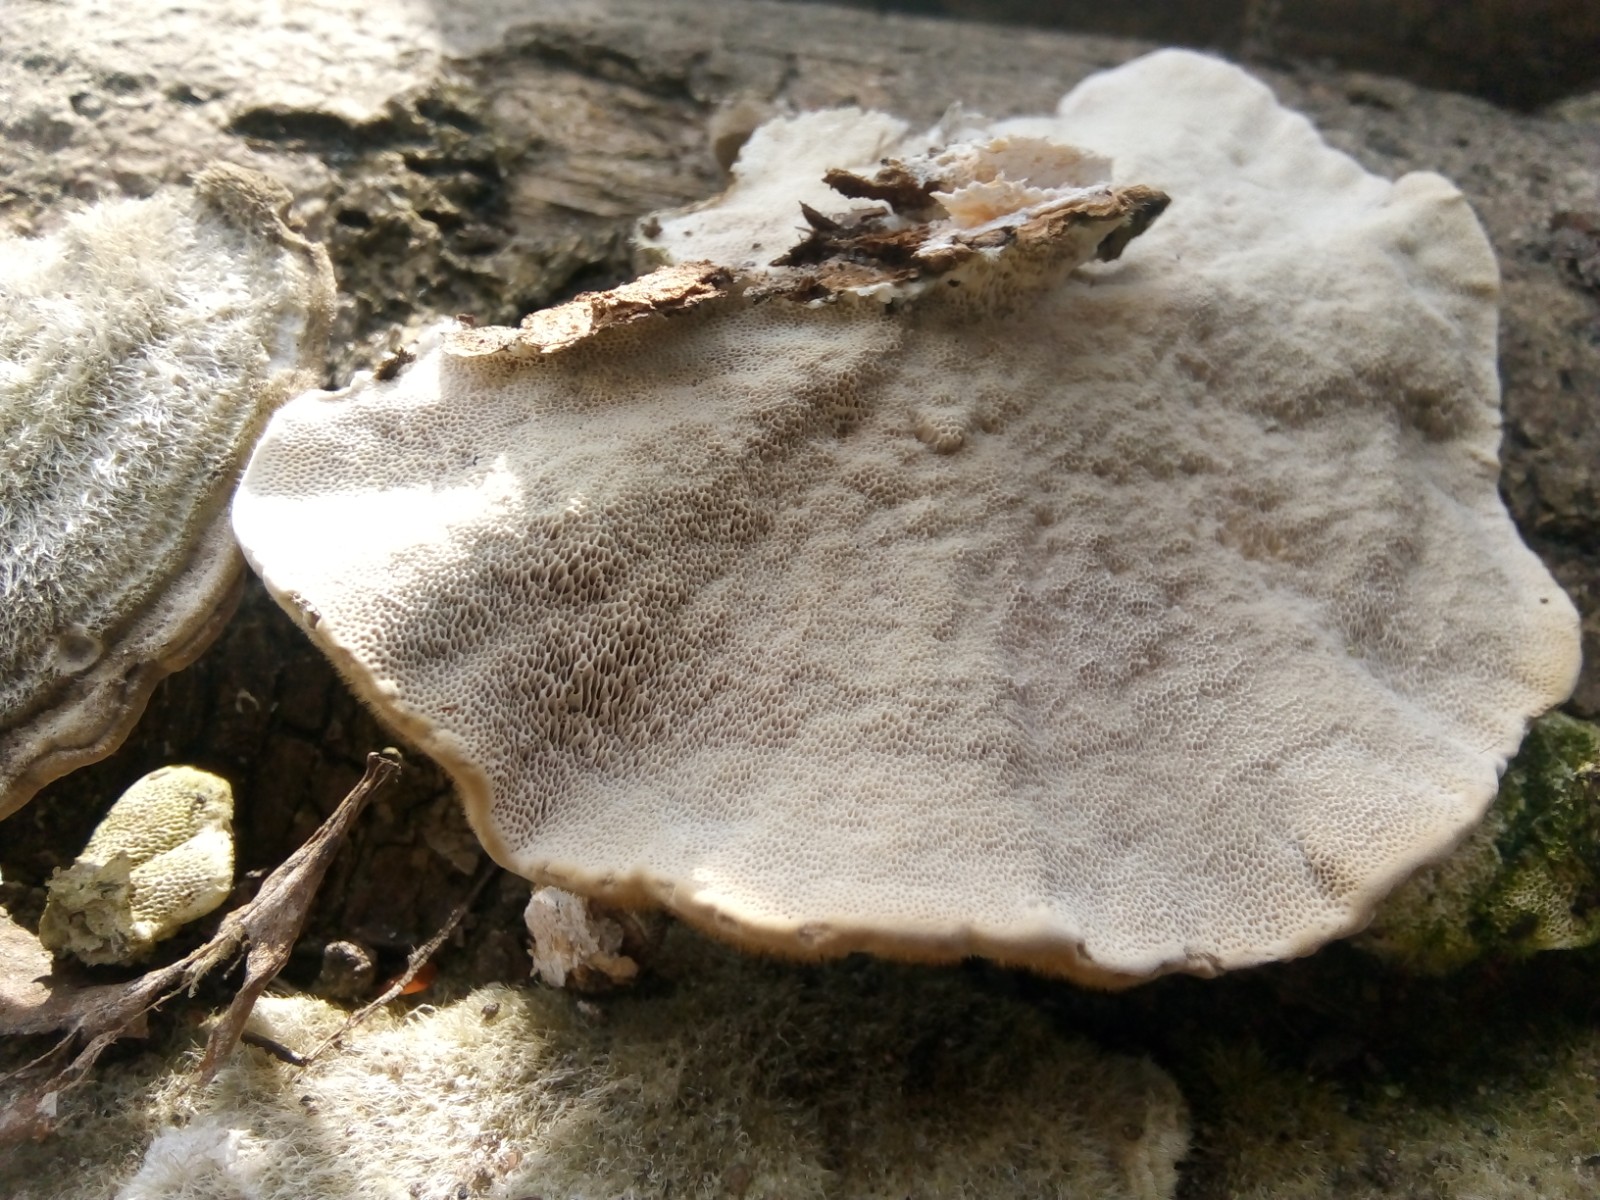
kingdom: Fungi
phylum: Basidiomycota
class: Agaricomycetes
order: Polyporales
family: Polyporaceae
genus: Trametes
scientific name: Trametes hirsuta
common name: håret læderporesvamp
